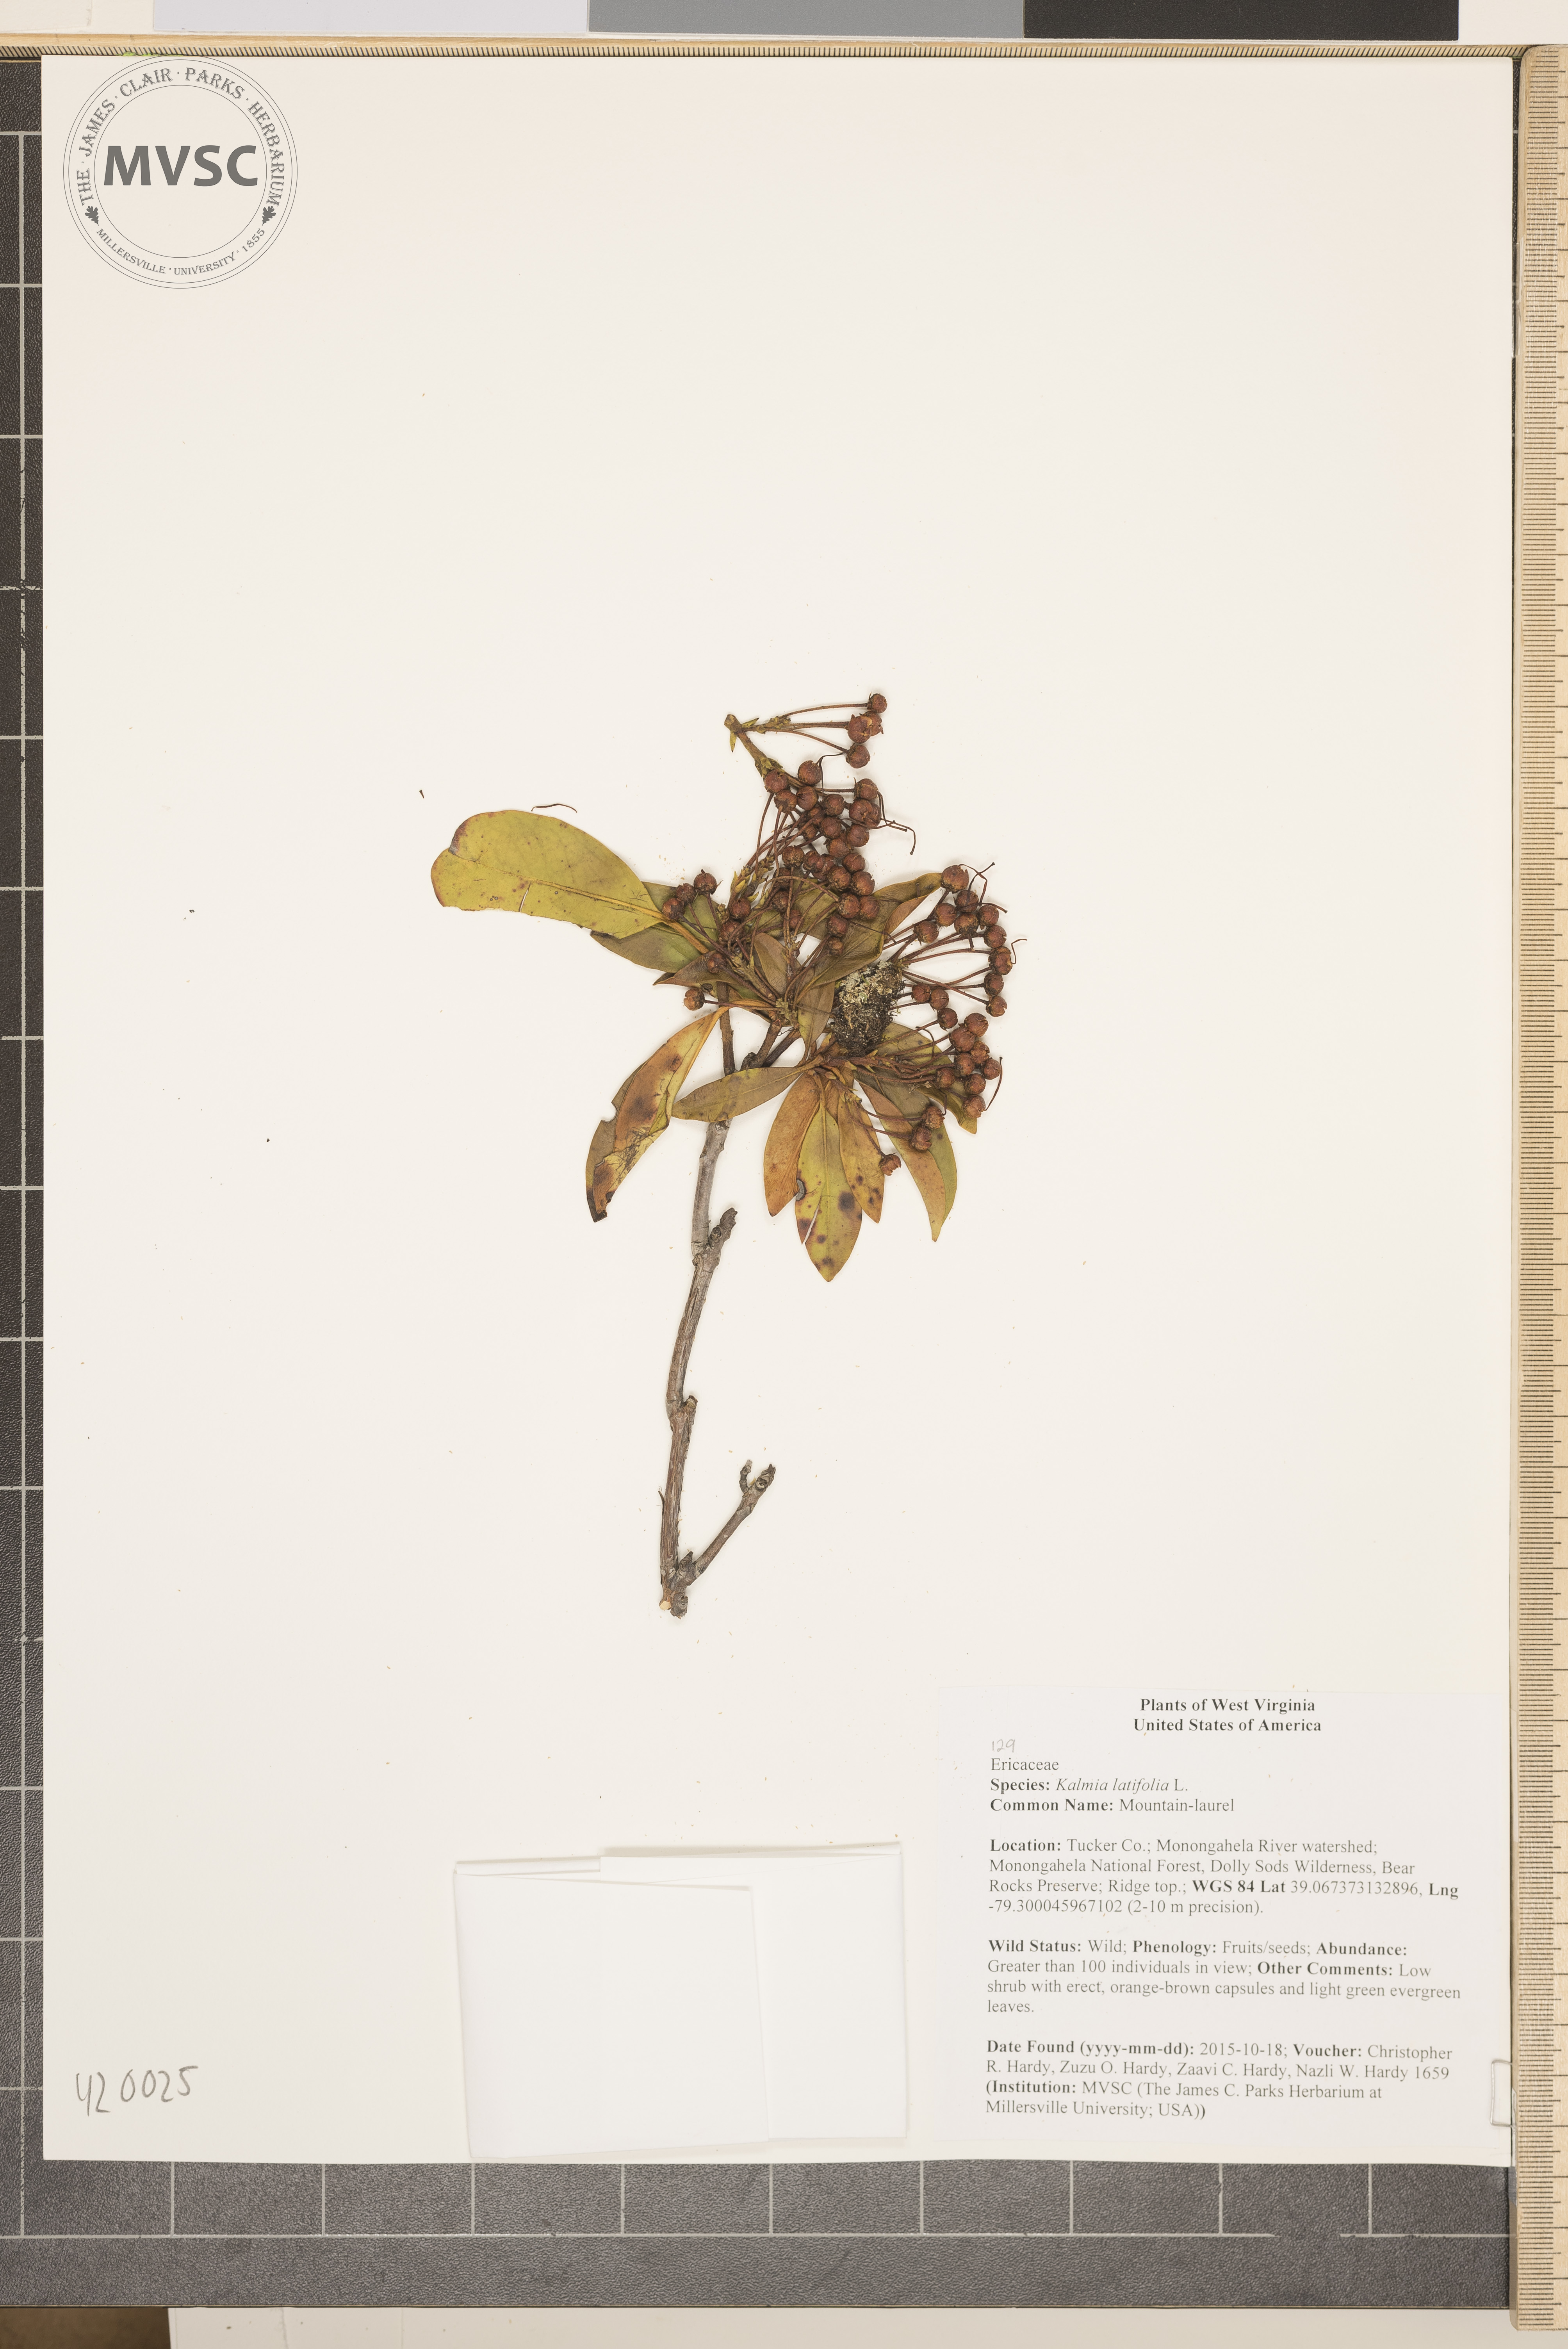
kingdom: Plantae
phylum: Tracheophyta
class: Magnoliopsida
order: Ericales
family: Ericaceae
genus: Kalmia
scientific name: Kalmia latifolia
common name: Mountain-laurel
